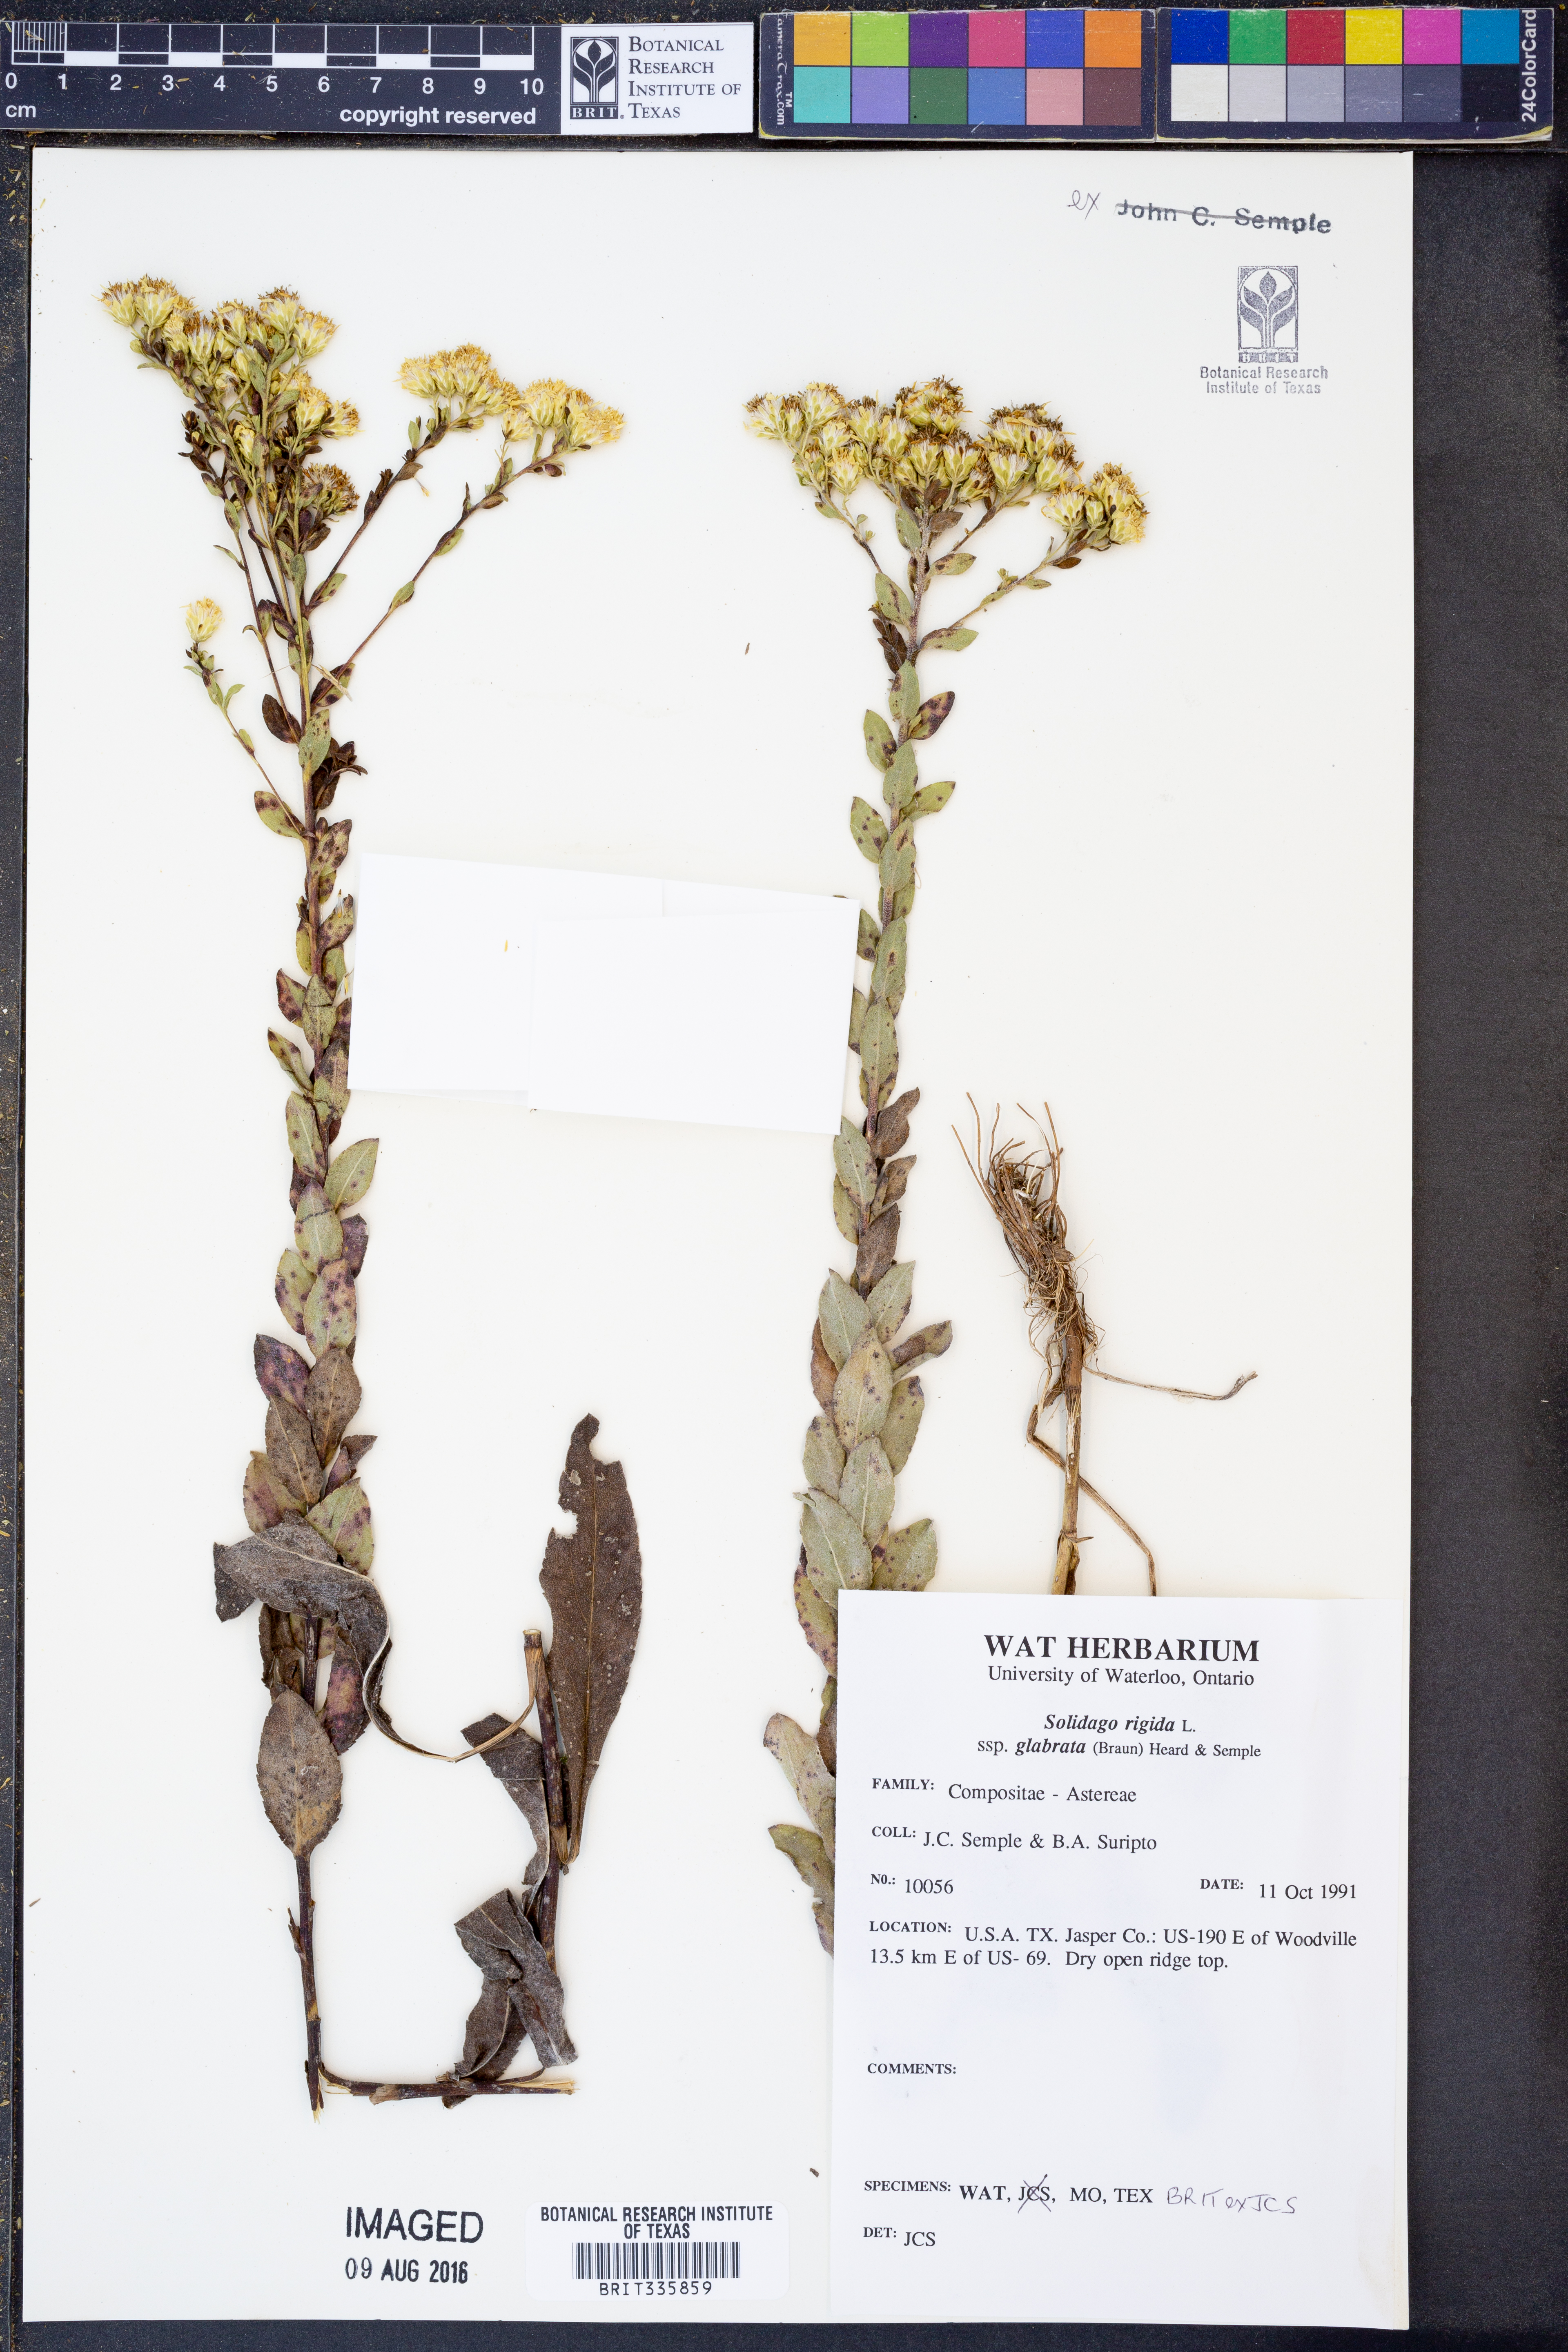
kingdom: Plantae
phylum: Tracheophyta
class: Magnoliopsida
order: Asterales
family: Asteraceae
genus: Solidago
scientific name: Solidago rigida
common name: Rigid goldenrod
